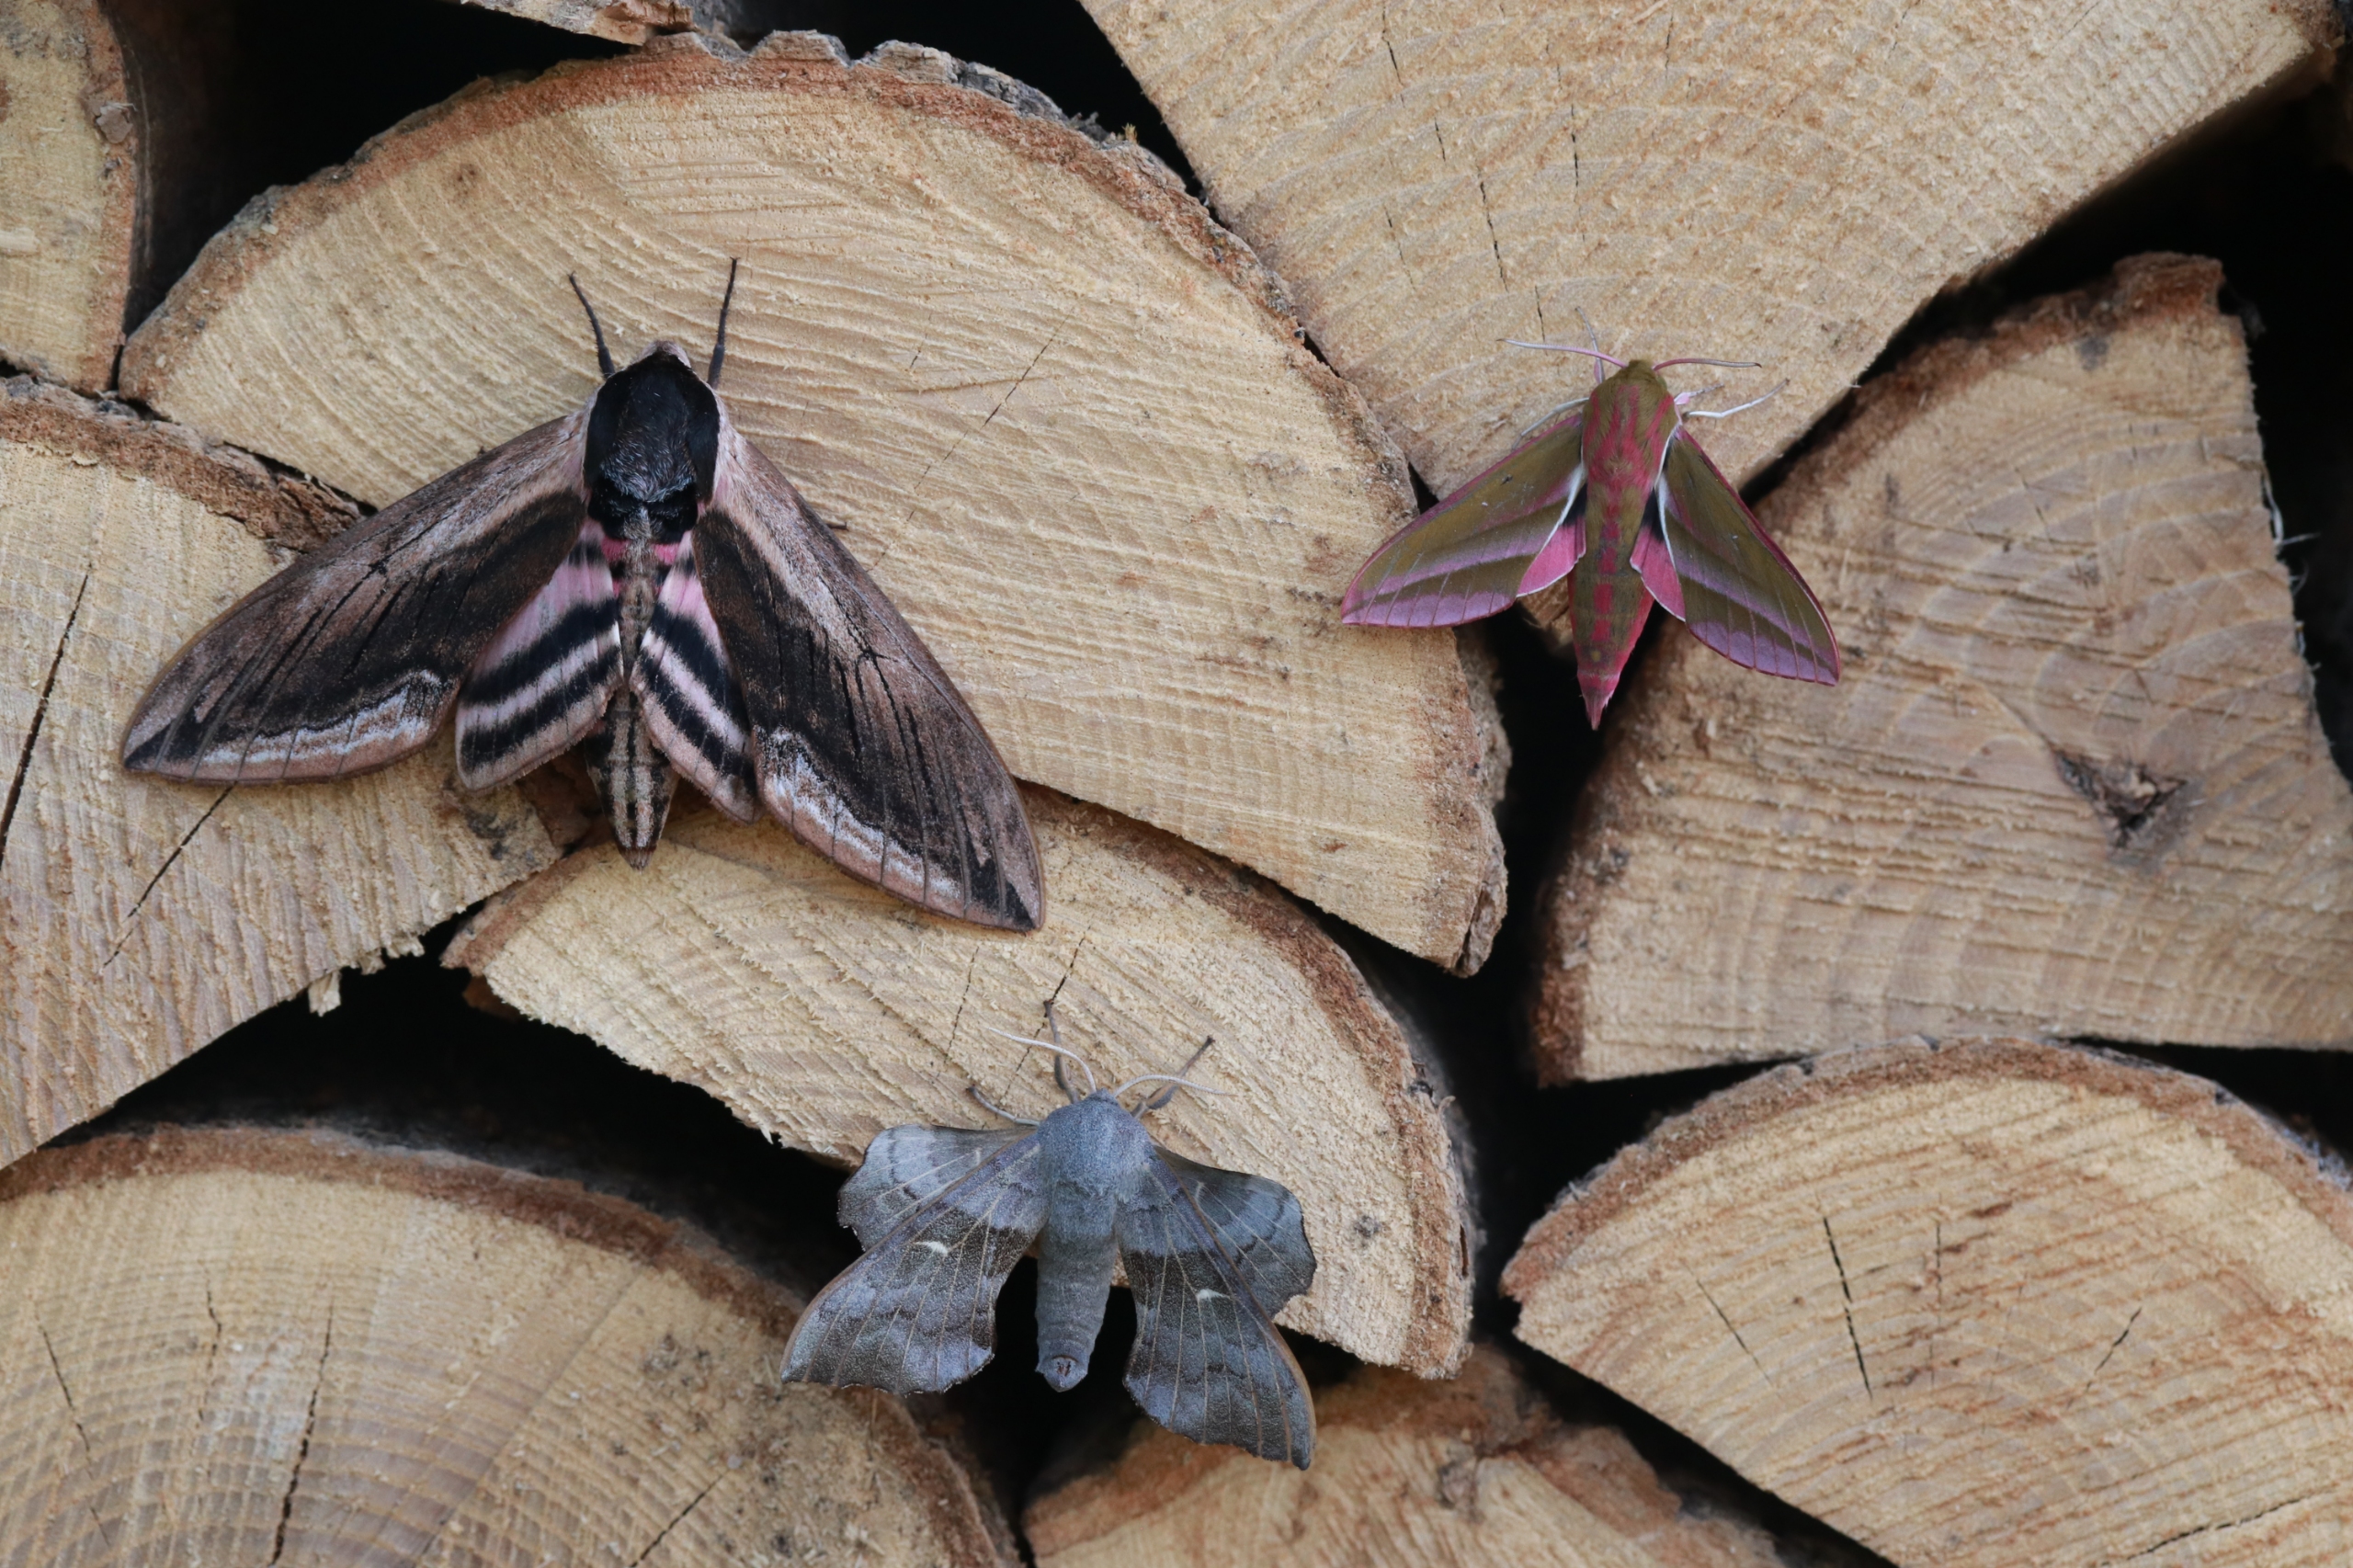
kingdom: Animalia
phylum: Arthropoda
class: Insecta
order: Lepidoptera
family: Sphingidae
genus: Sphinx
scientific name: Sphinx ligustri
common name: Ligustersværmer
